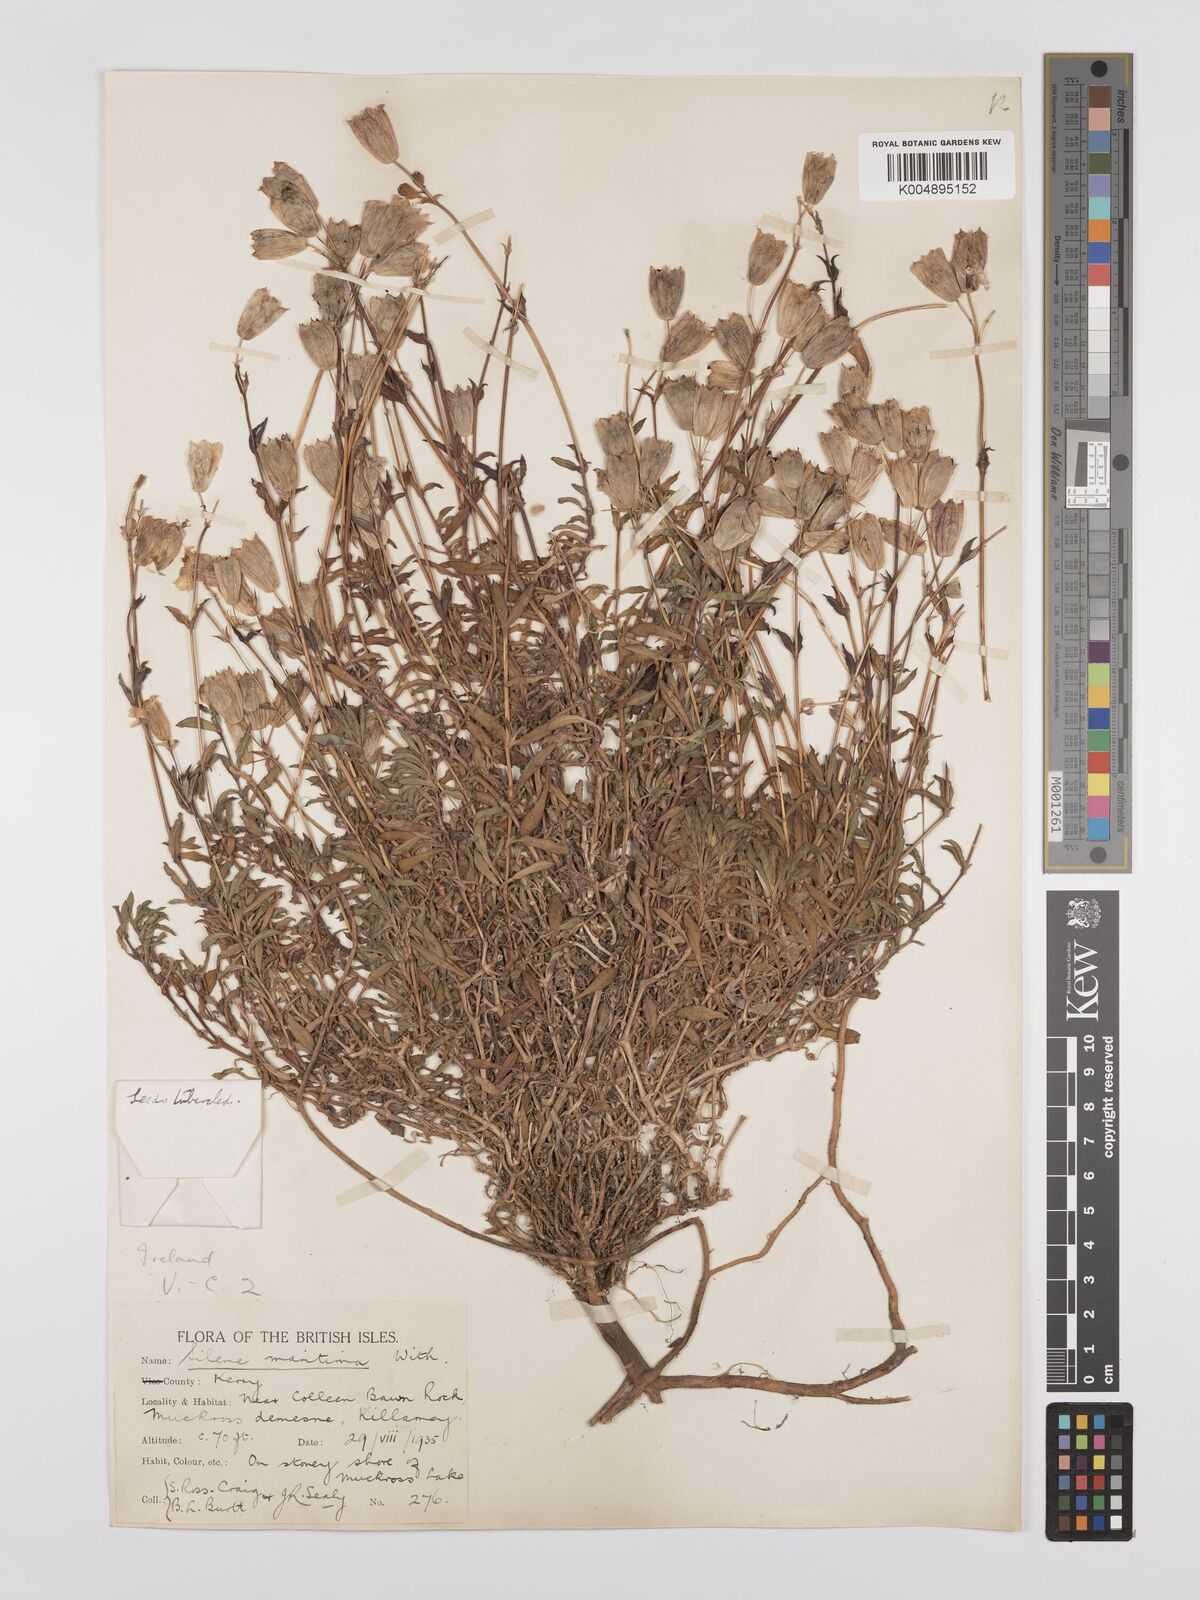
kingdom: Plantae
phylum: Tracheophyta
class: Magnoliopsida
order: Caryophyllales
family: Caryophyllaceae
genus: Silene
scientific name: Silene uniflora
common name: Sea campion
